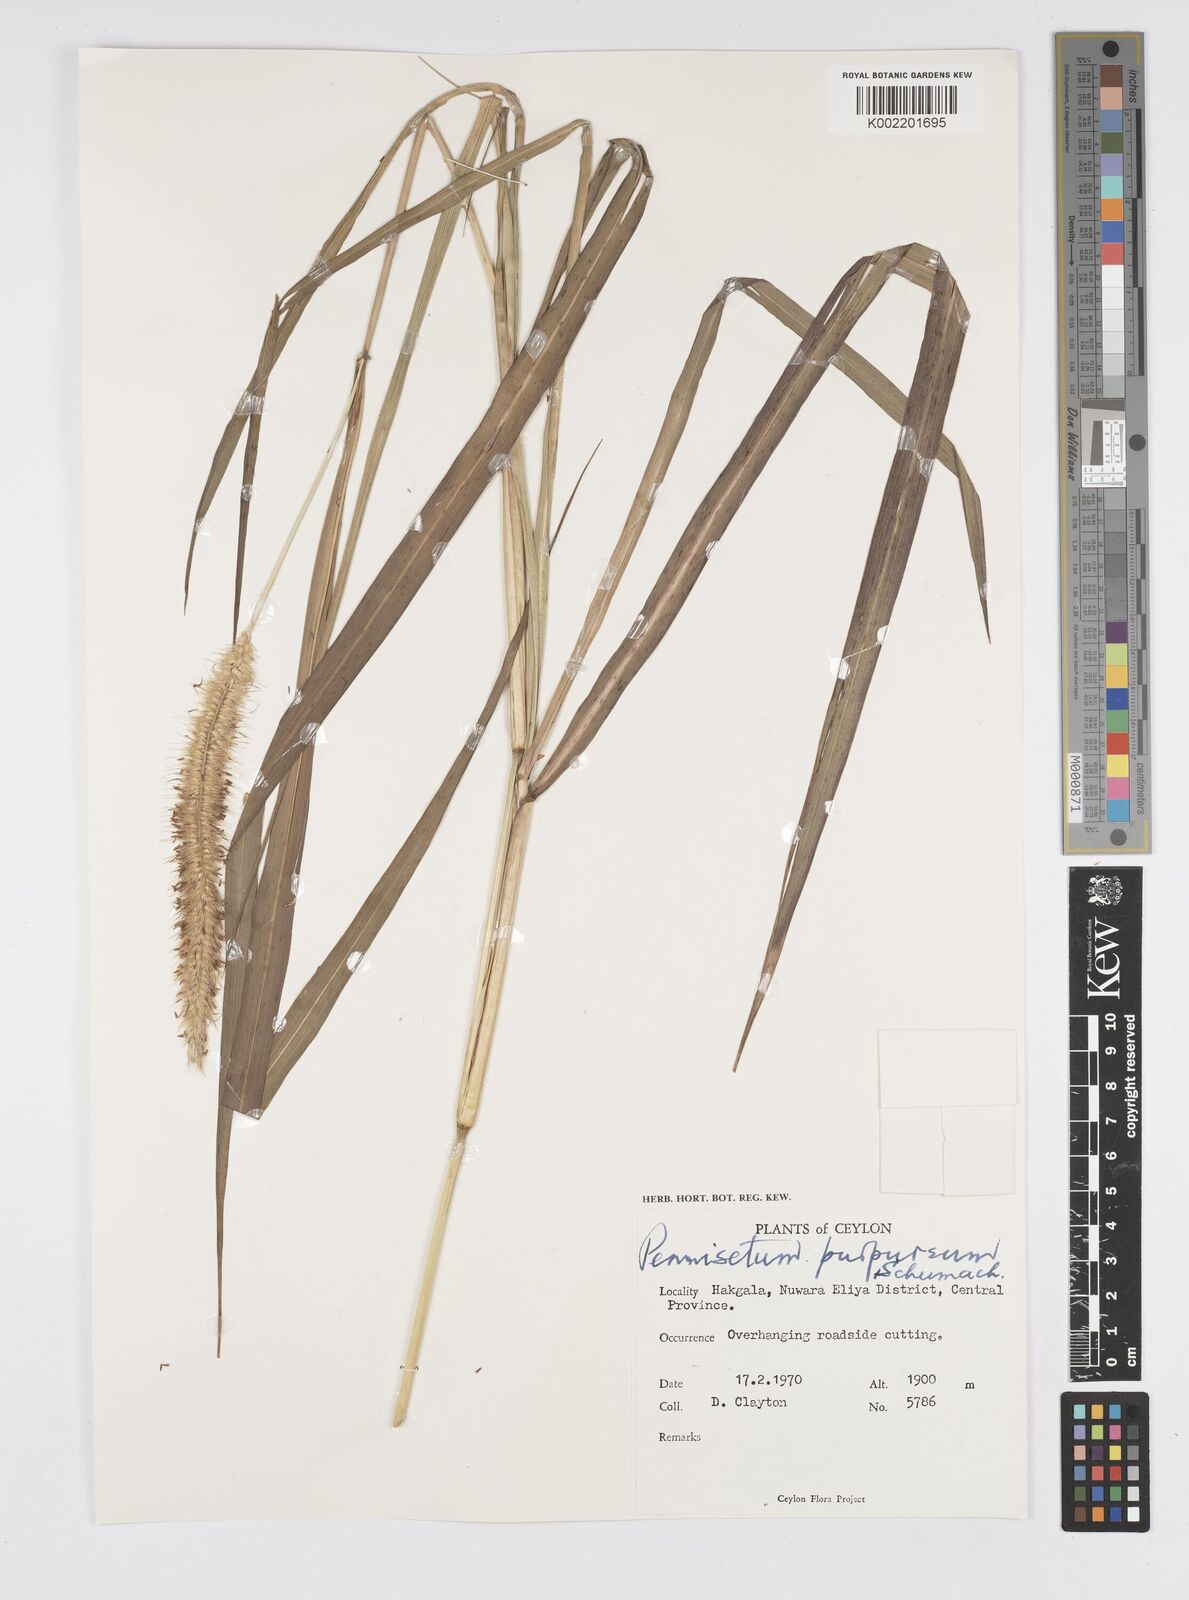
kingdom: Plantae
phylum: Tracheophyta
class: Liliopsida
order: Poales
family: Poaceae
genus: Cenchrus
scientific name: Cenchrus purpureus
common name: Elephant grass
